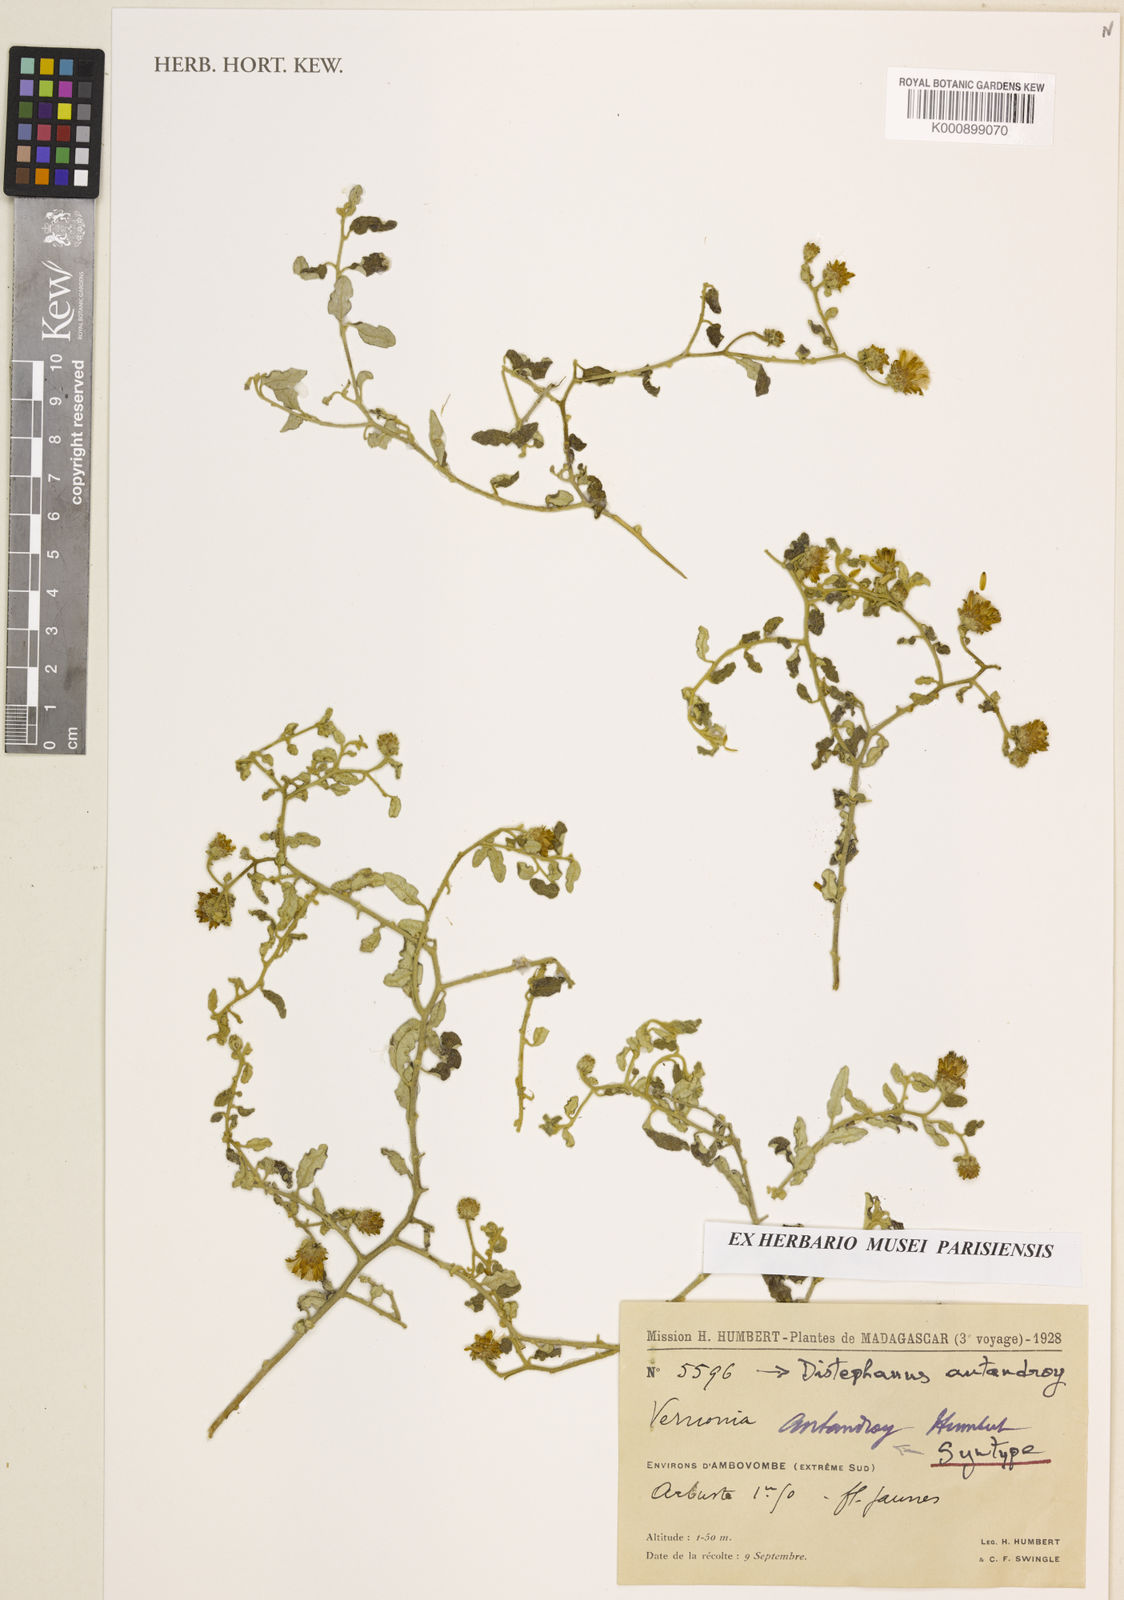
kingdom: Plantae
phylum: Tracheophyta
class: Magnoliopsida
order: Asterales
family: Asteraceae
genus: Distephanus
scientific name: Distephanus antandroy
